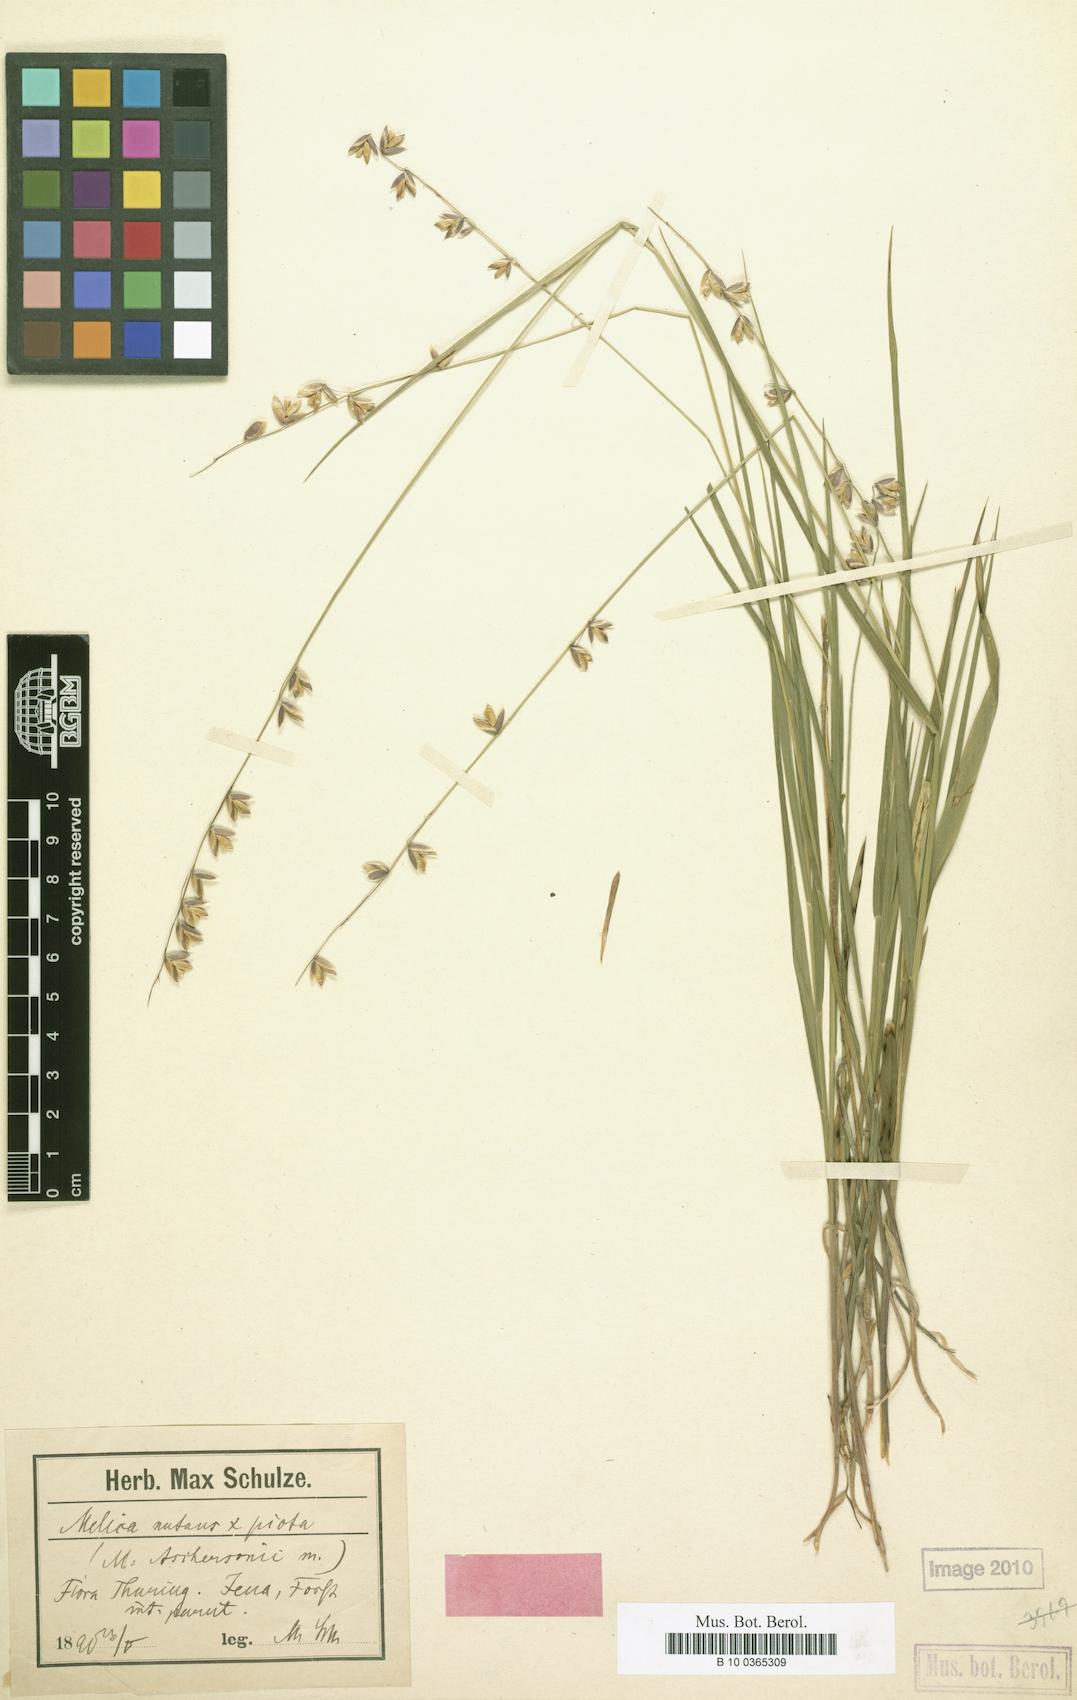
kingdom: Plantae
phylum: Tracheophyta
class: Liliopsida
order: Poales
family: Poaceae
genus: Melica
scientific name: Melica aschersonii
